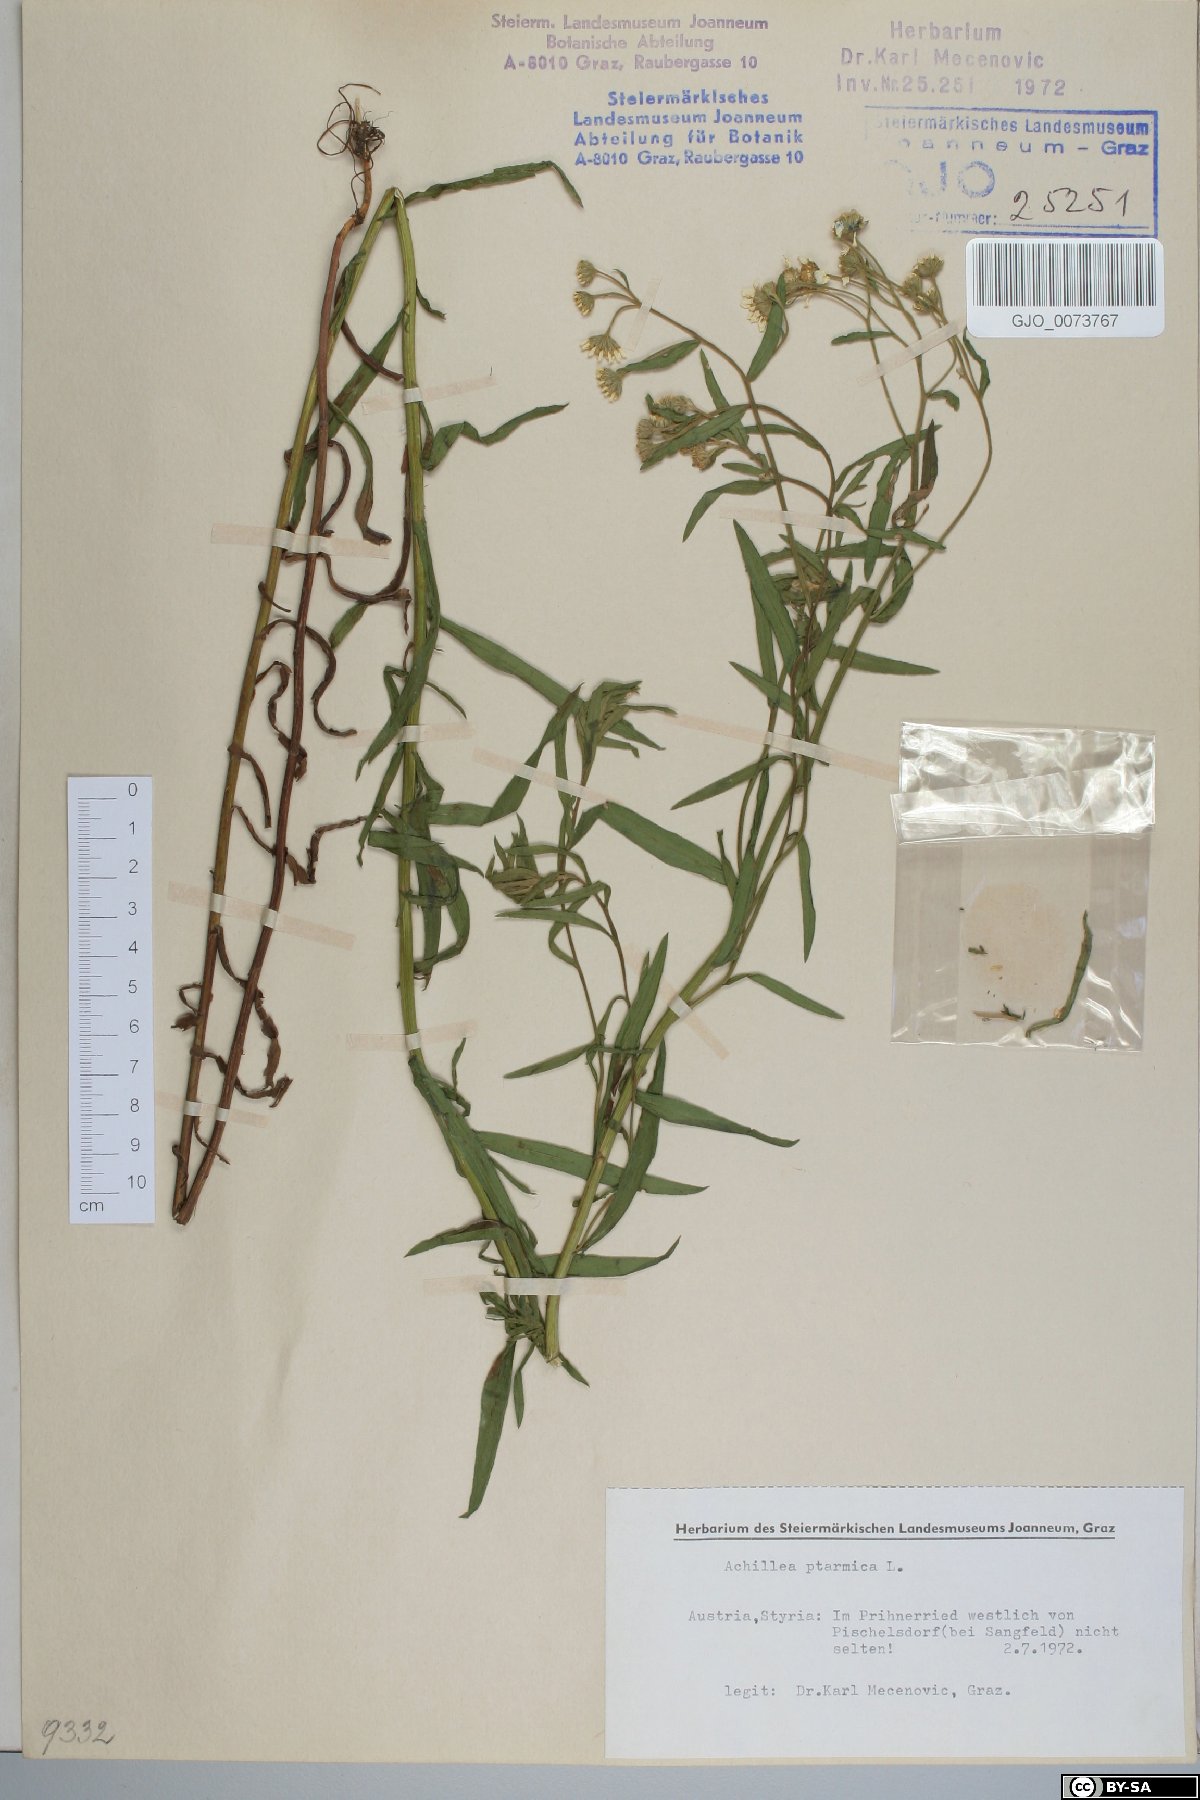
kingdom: Plantae
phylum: Tracheophyta
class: Magnoliopsida
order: Asterales
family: Asteraceae
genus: Achillea
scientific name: Achillea ptarmica
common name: Sneezeweed
